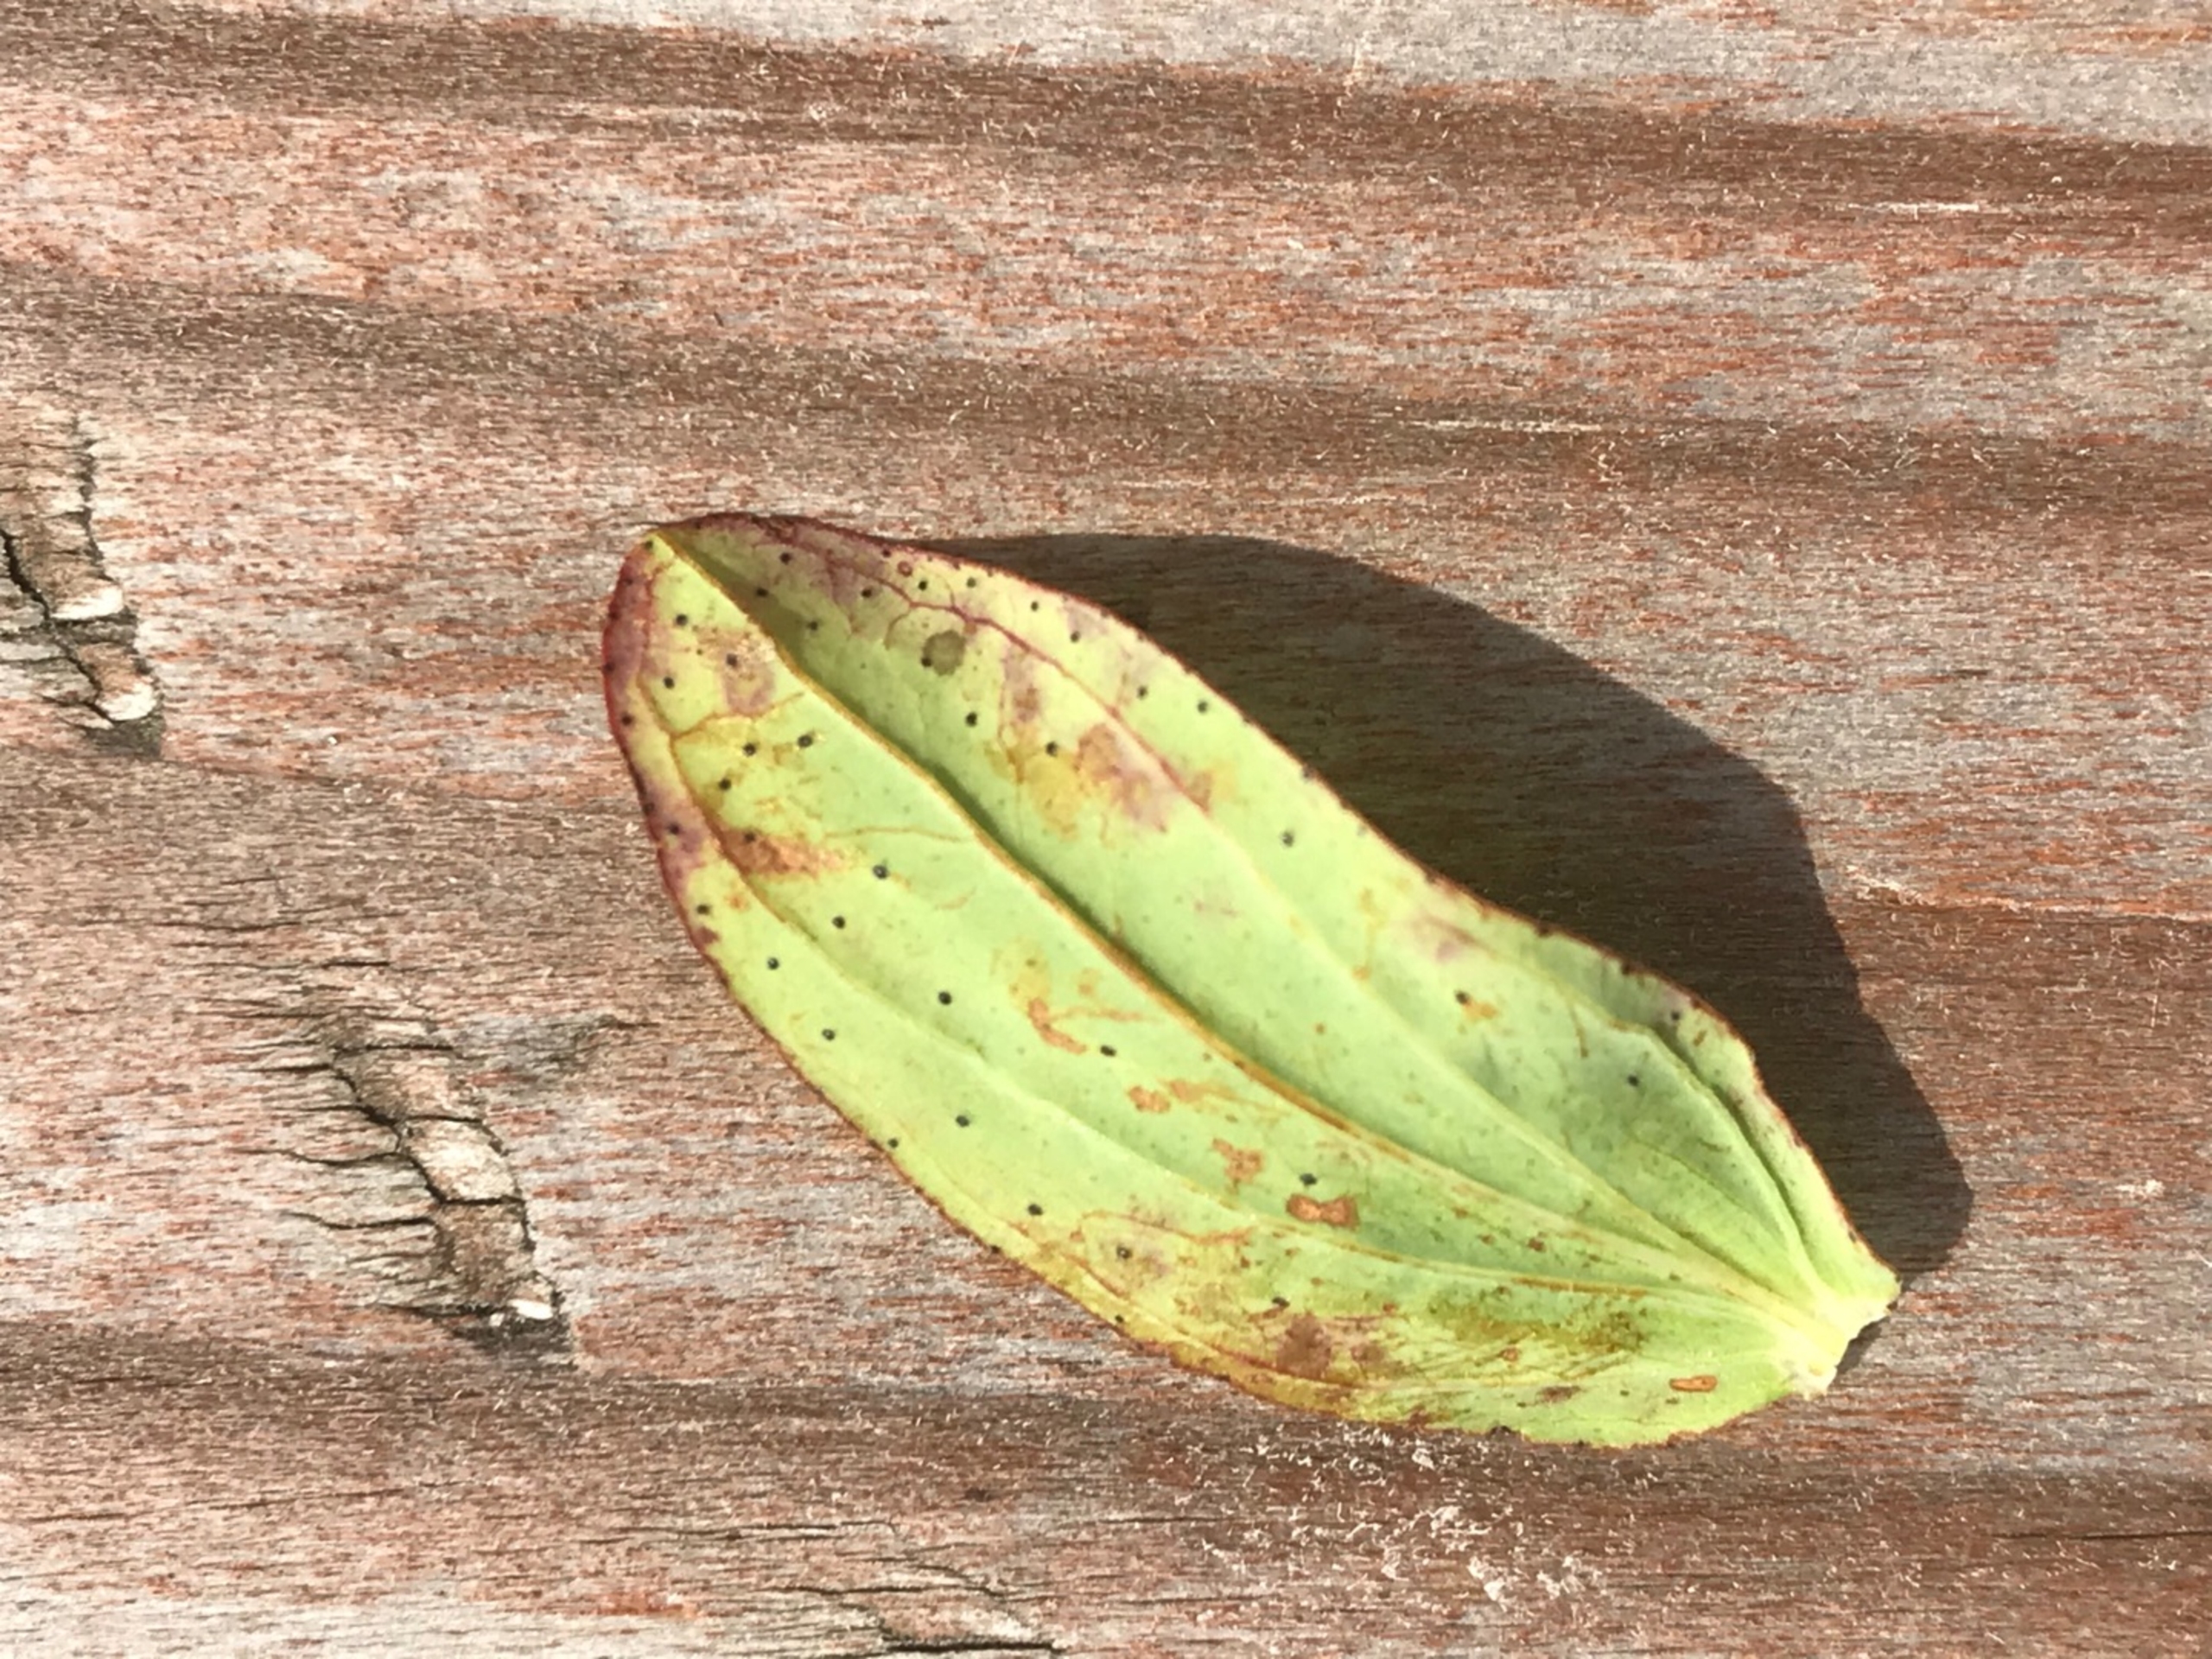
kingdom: Plantae
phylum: Tracheophyta
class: Magnoliopsida
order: Malpighiales
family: Hypericaceae
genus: Hypericum
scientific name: Hypericum perforatum
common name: Prikbladet perikon
